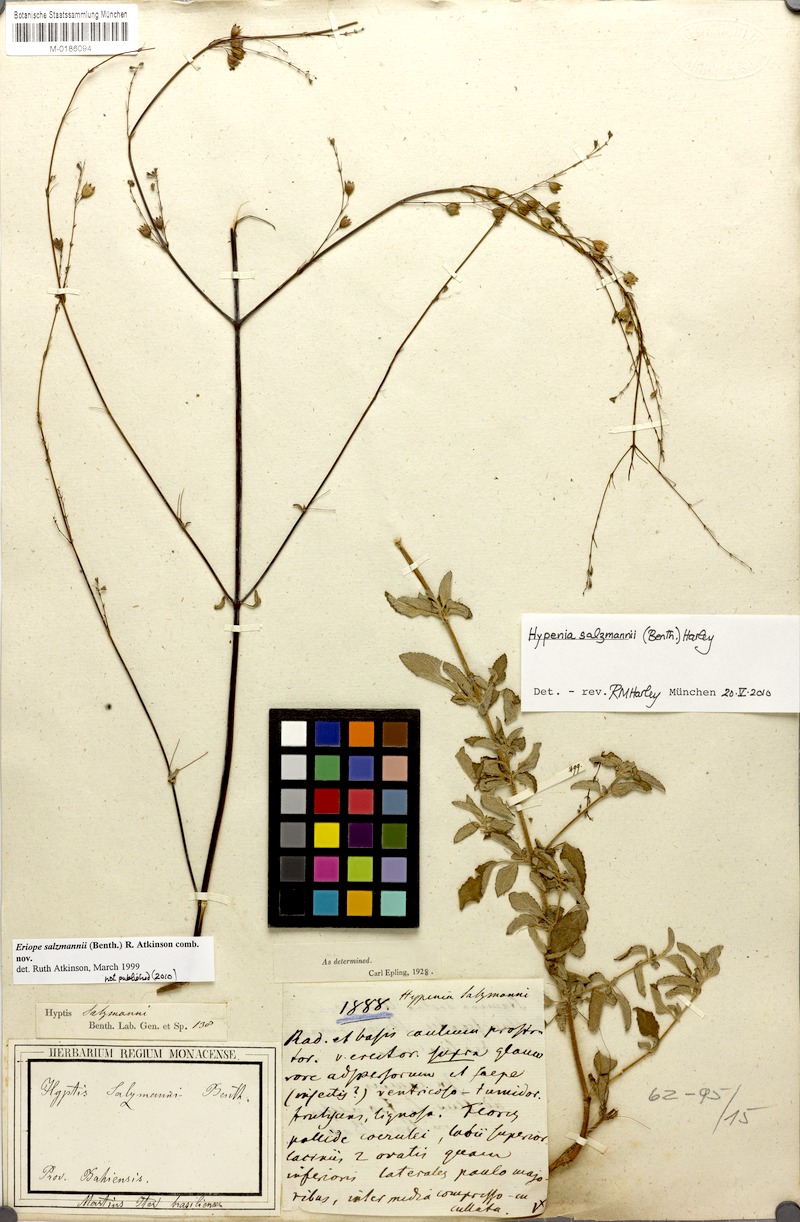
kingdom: Plantae
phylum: Tracheophyta
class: Magnoliopsida
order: Lamiales
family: Lamiaceae
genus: Hypenia
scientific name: Hypenia salzmannii
